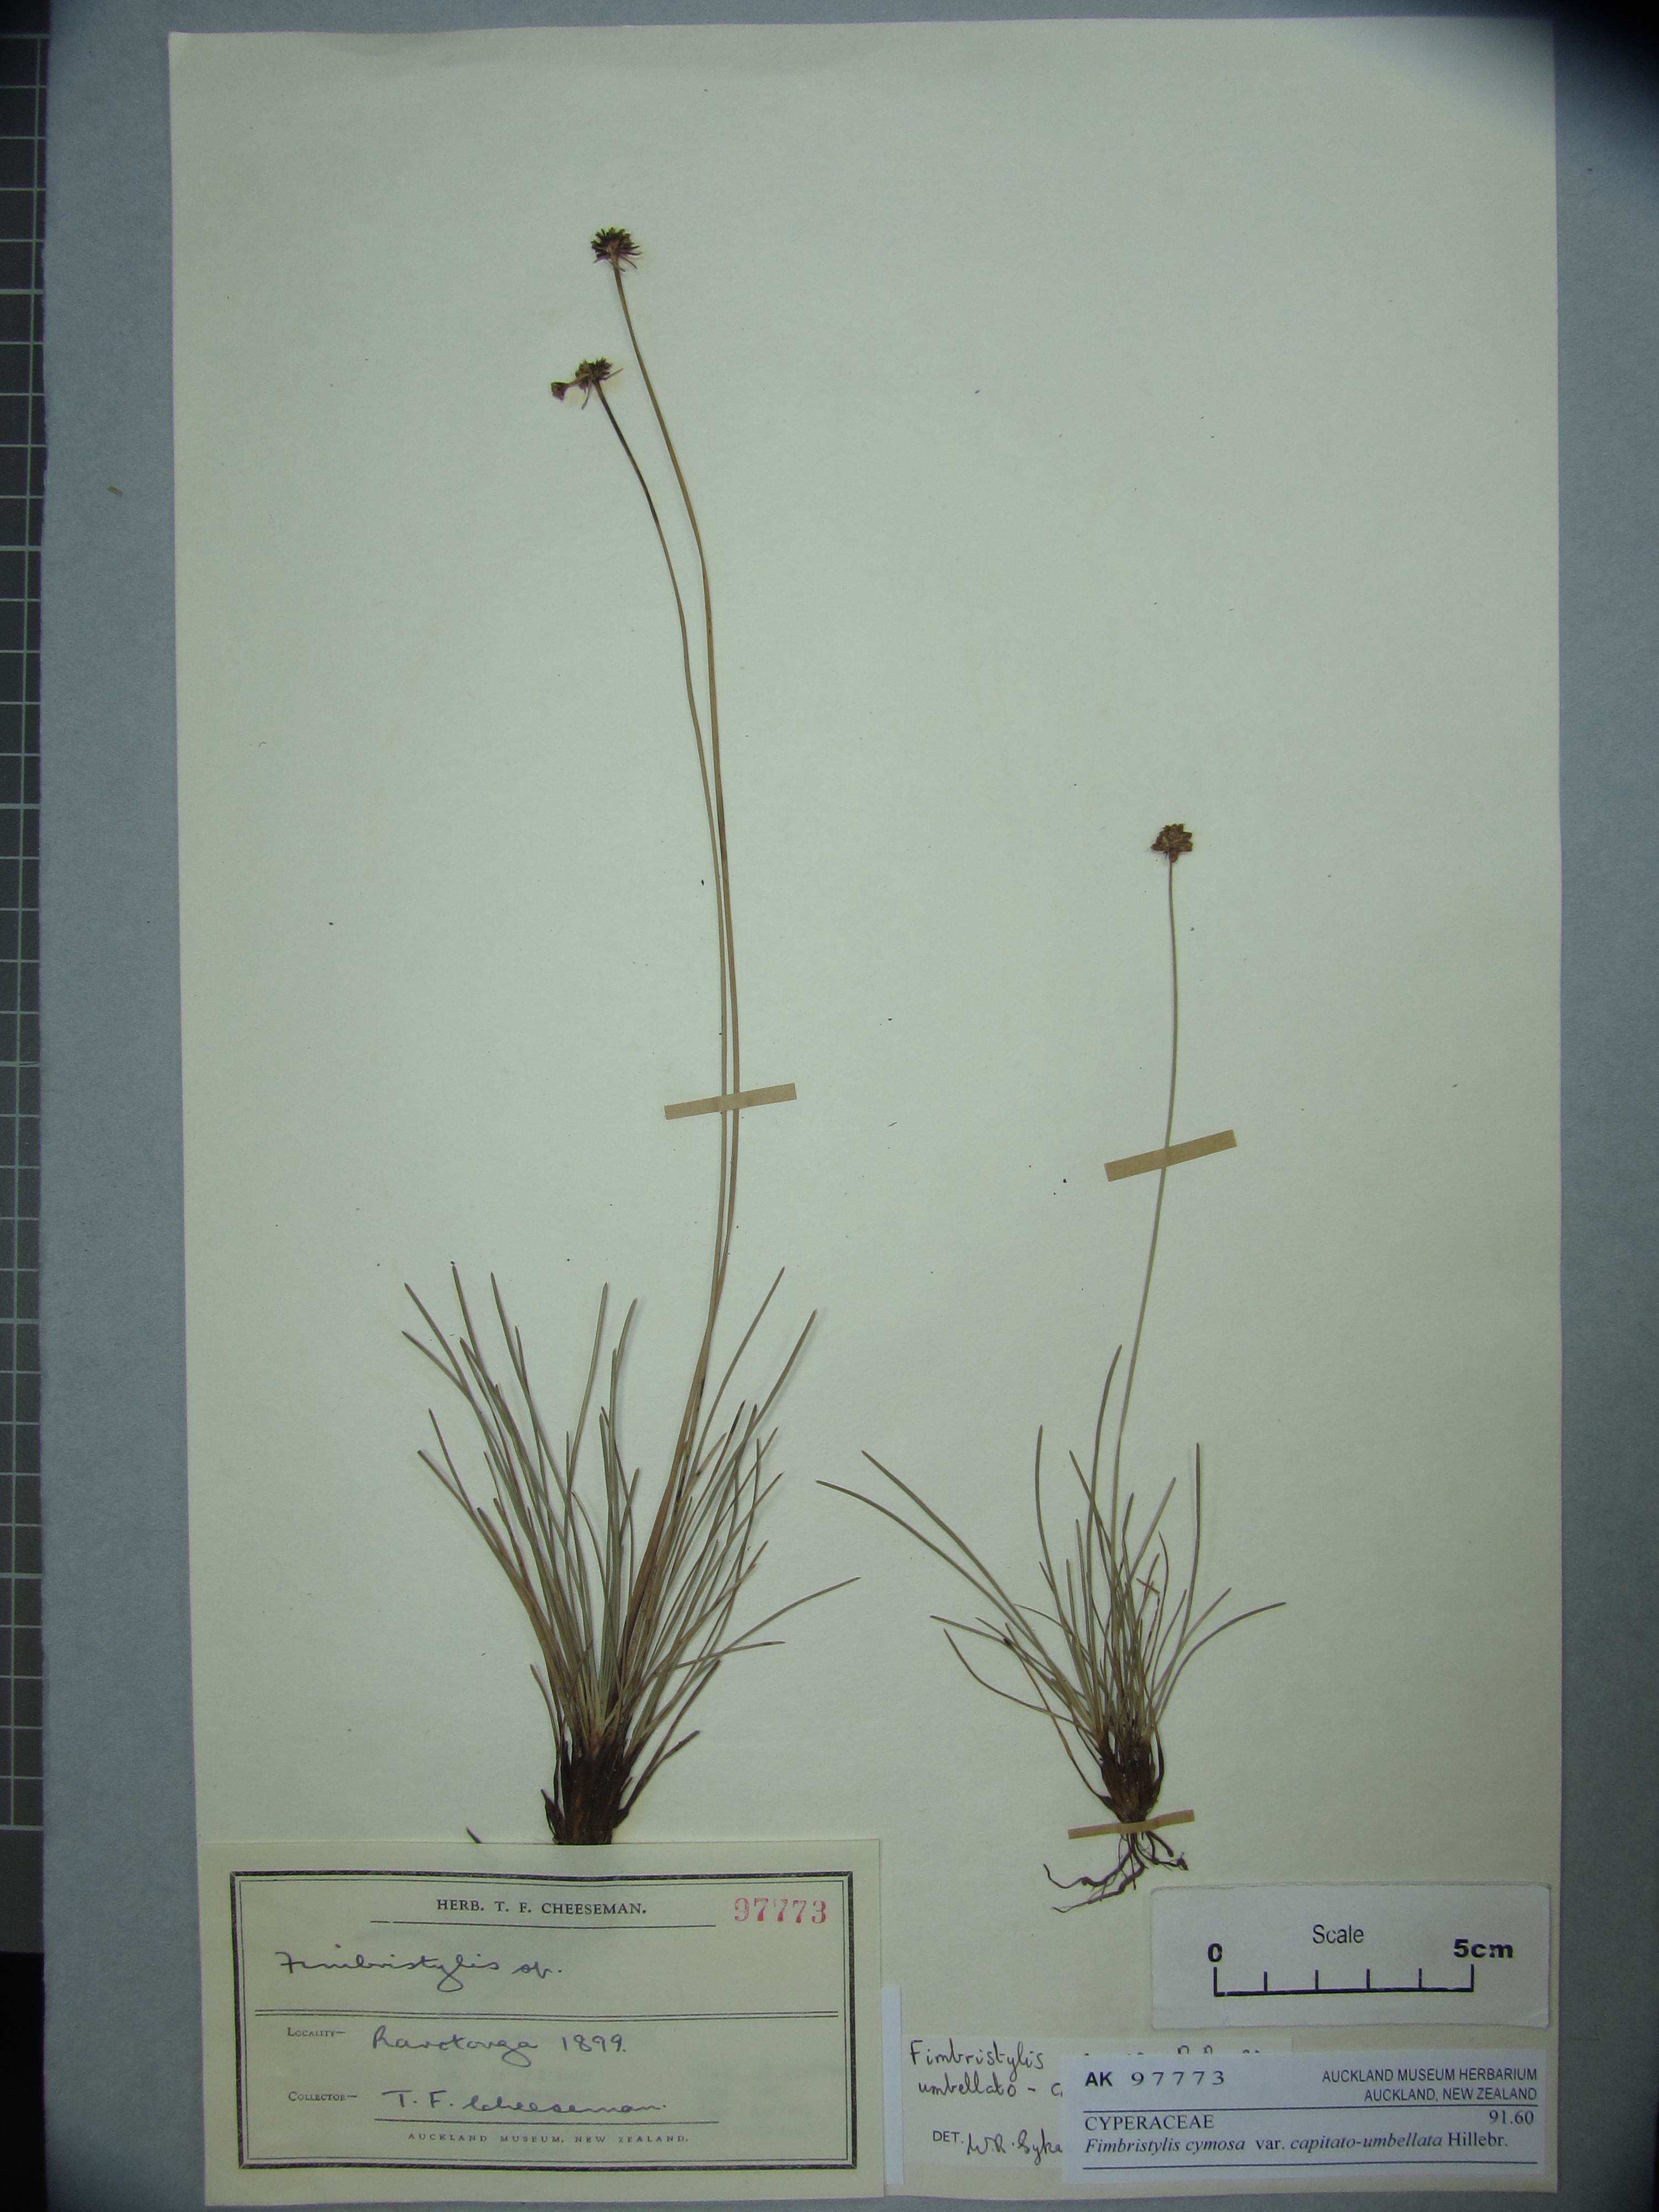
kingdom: Plantae
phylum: Tracheophyta
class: Liliopsida
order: Poales
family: Cyperaceae
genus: Fimbristylis
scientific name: Fimbristylis cymosa
